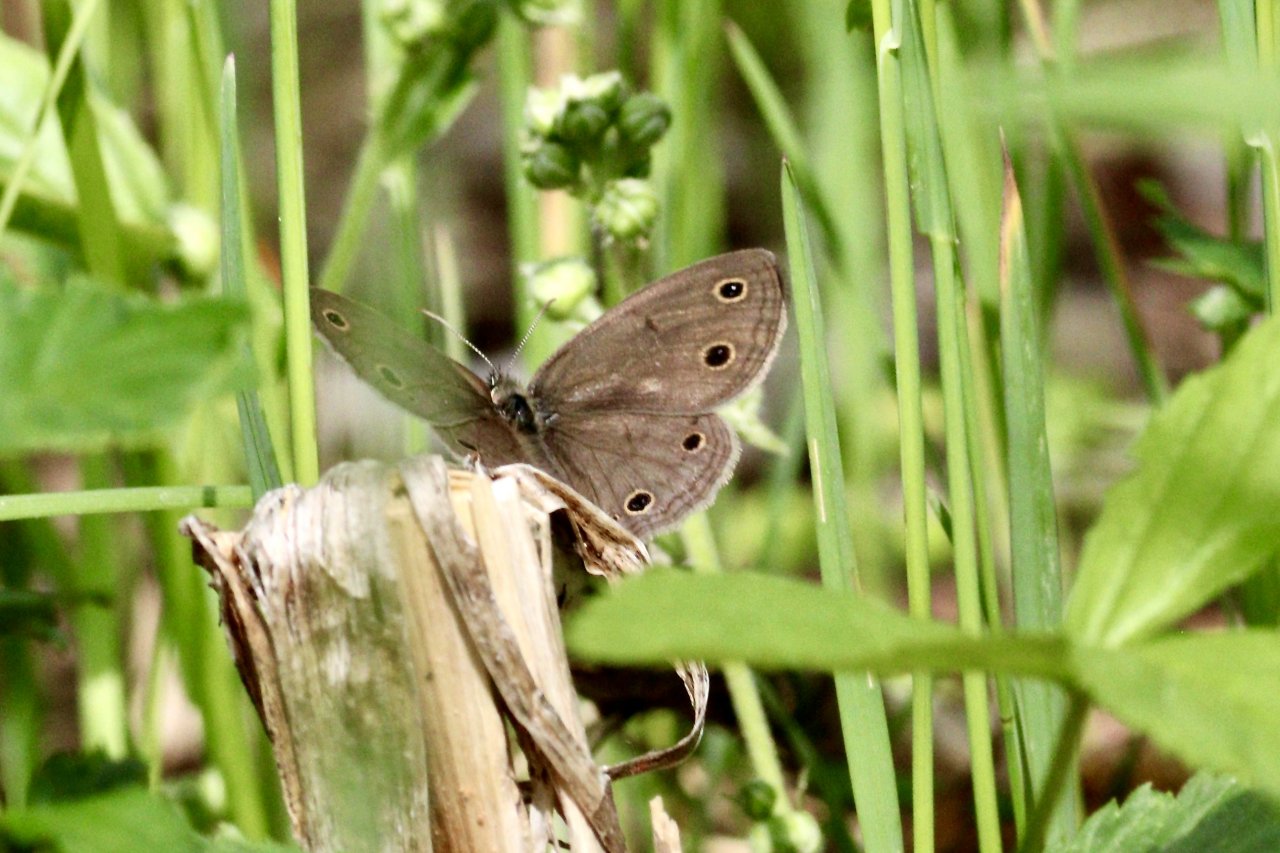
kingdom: Animalia
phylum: Arthropoda
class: Insecta
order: Lepidoptera
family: Nymphalidae
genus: Euptychia
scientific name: Euptychia cymela
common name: Little Wood Satyr
